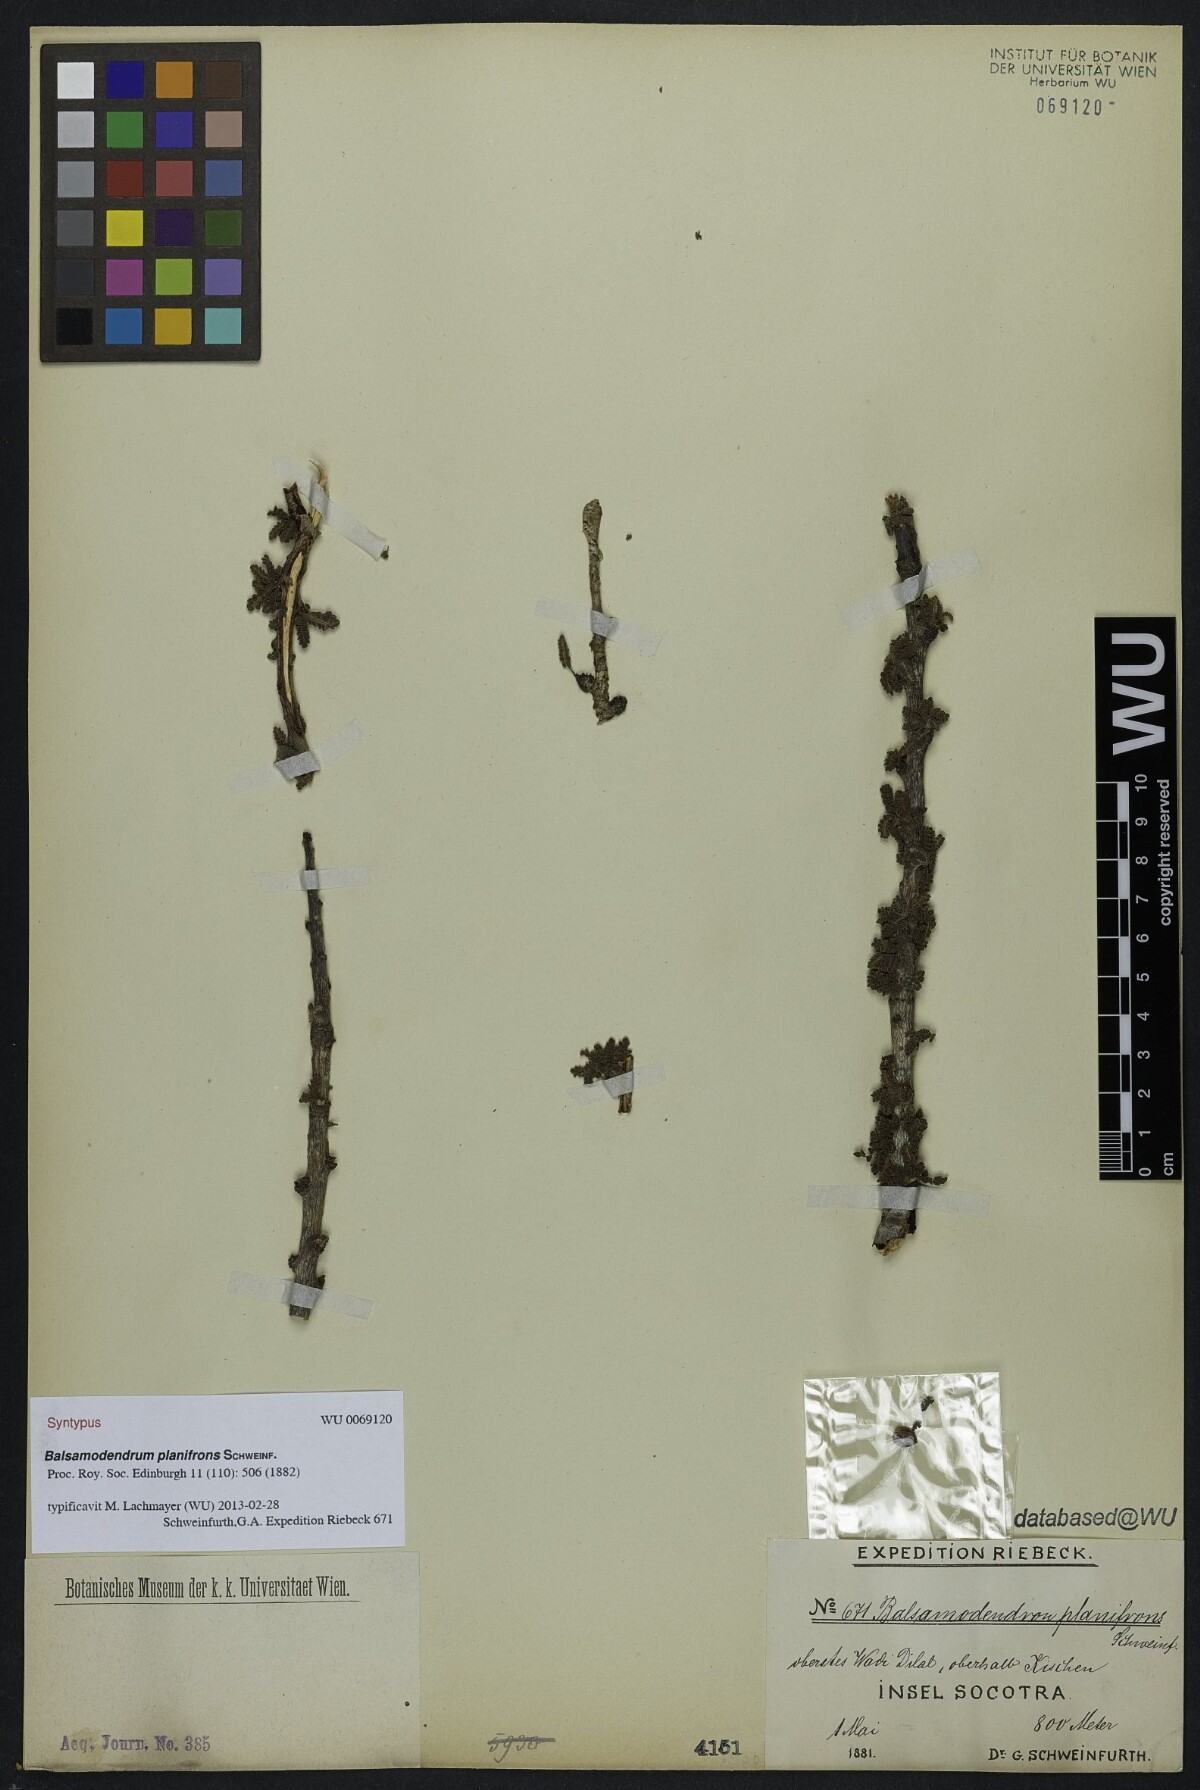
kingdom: Plantae
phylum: Tracheophyta
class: Magnoliopsida
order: Sapindales
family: Burseraceae
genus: Commiphora
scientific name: Commiphora planifrons
